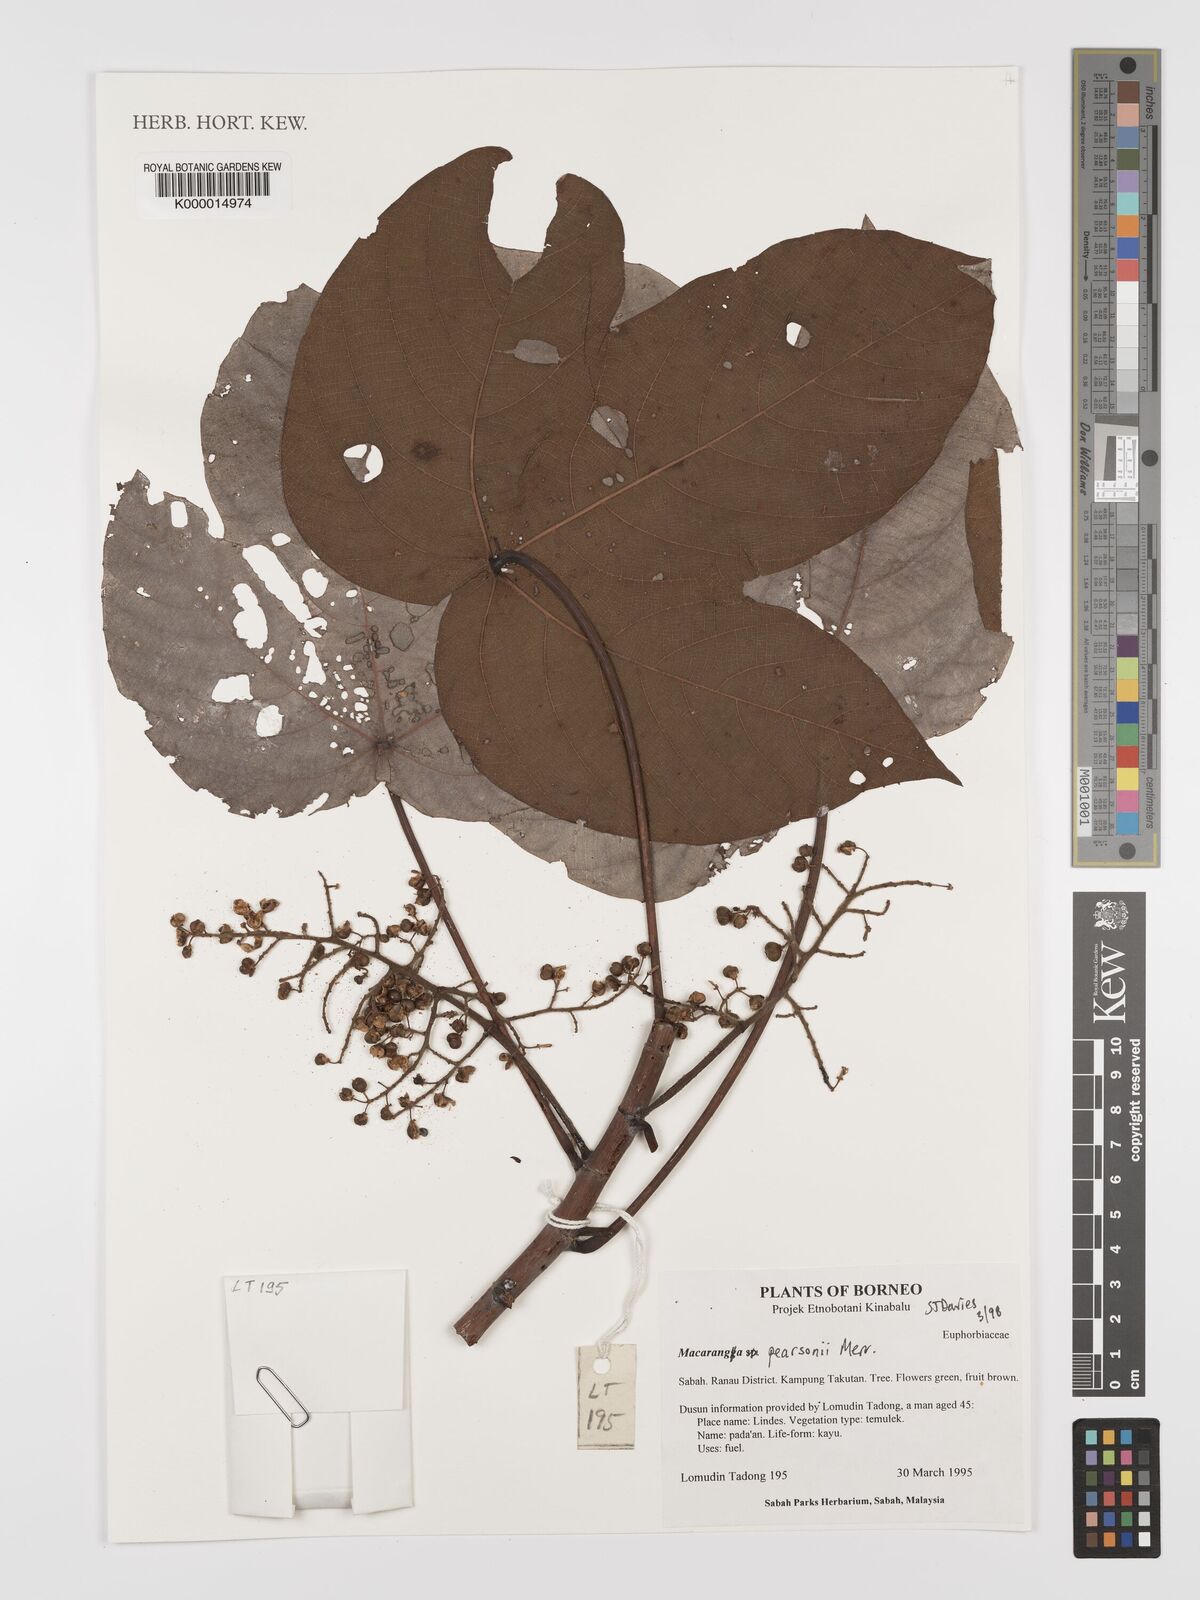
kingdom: Plantae
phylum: Tracheophyta
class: Magnoliopsida
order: Malpighiales
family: Euphorbiaceae
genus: Macaranga
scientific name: Macaranga pearsonii
